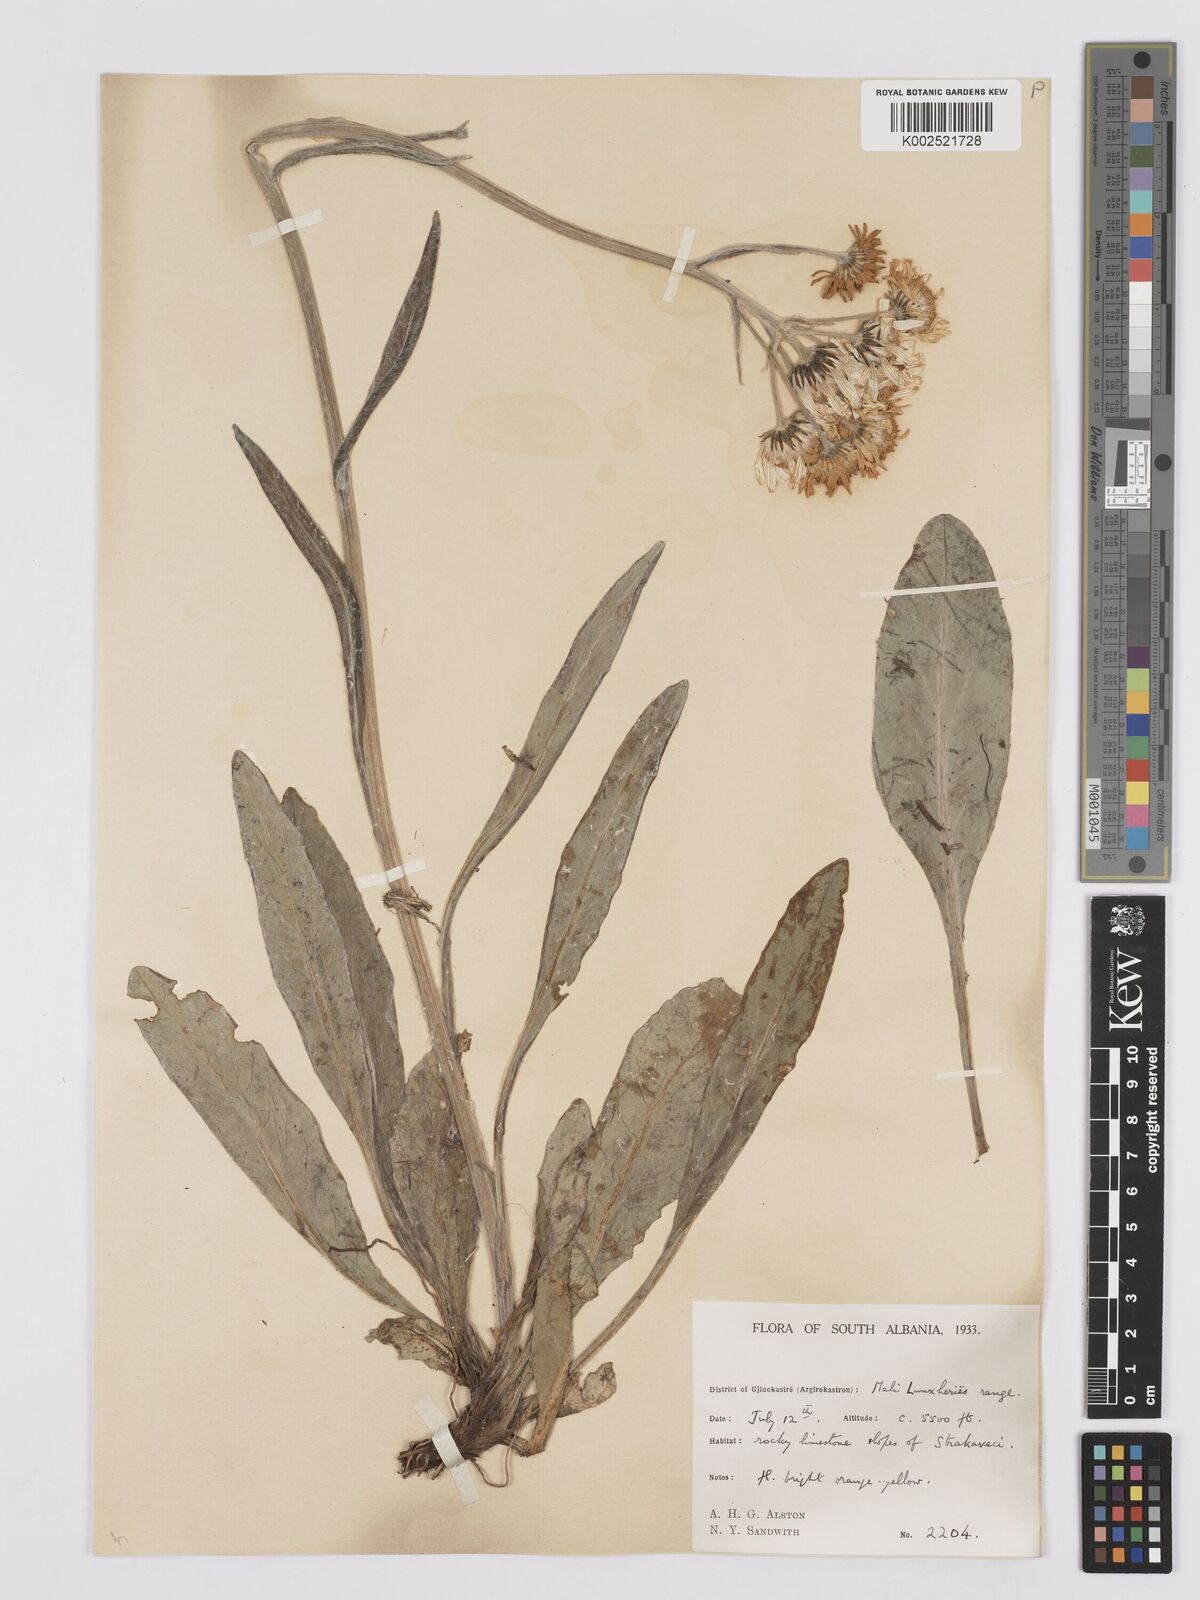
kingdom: Plantae
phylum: Tracheophyta
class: Magnoliopsida
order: Asterales
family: Asteraceae
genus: Tephroseris
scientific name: Tephroseris papposa
